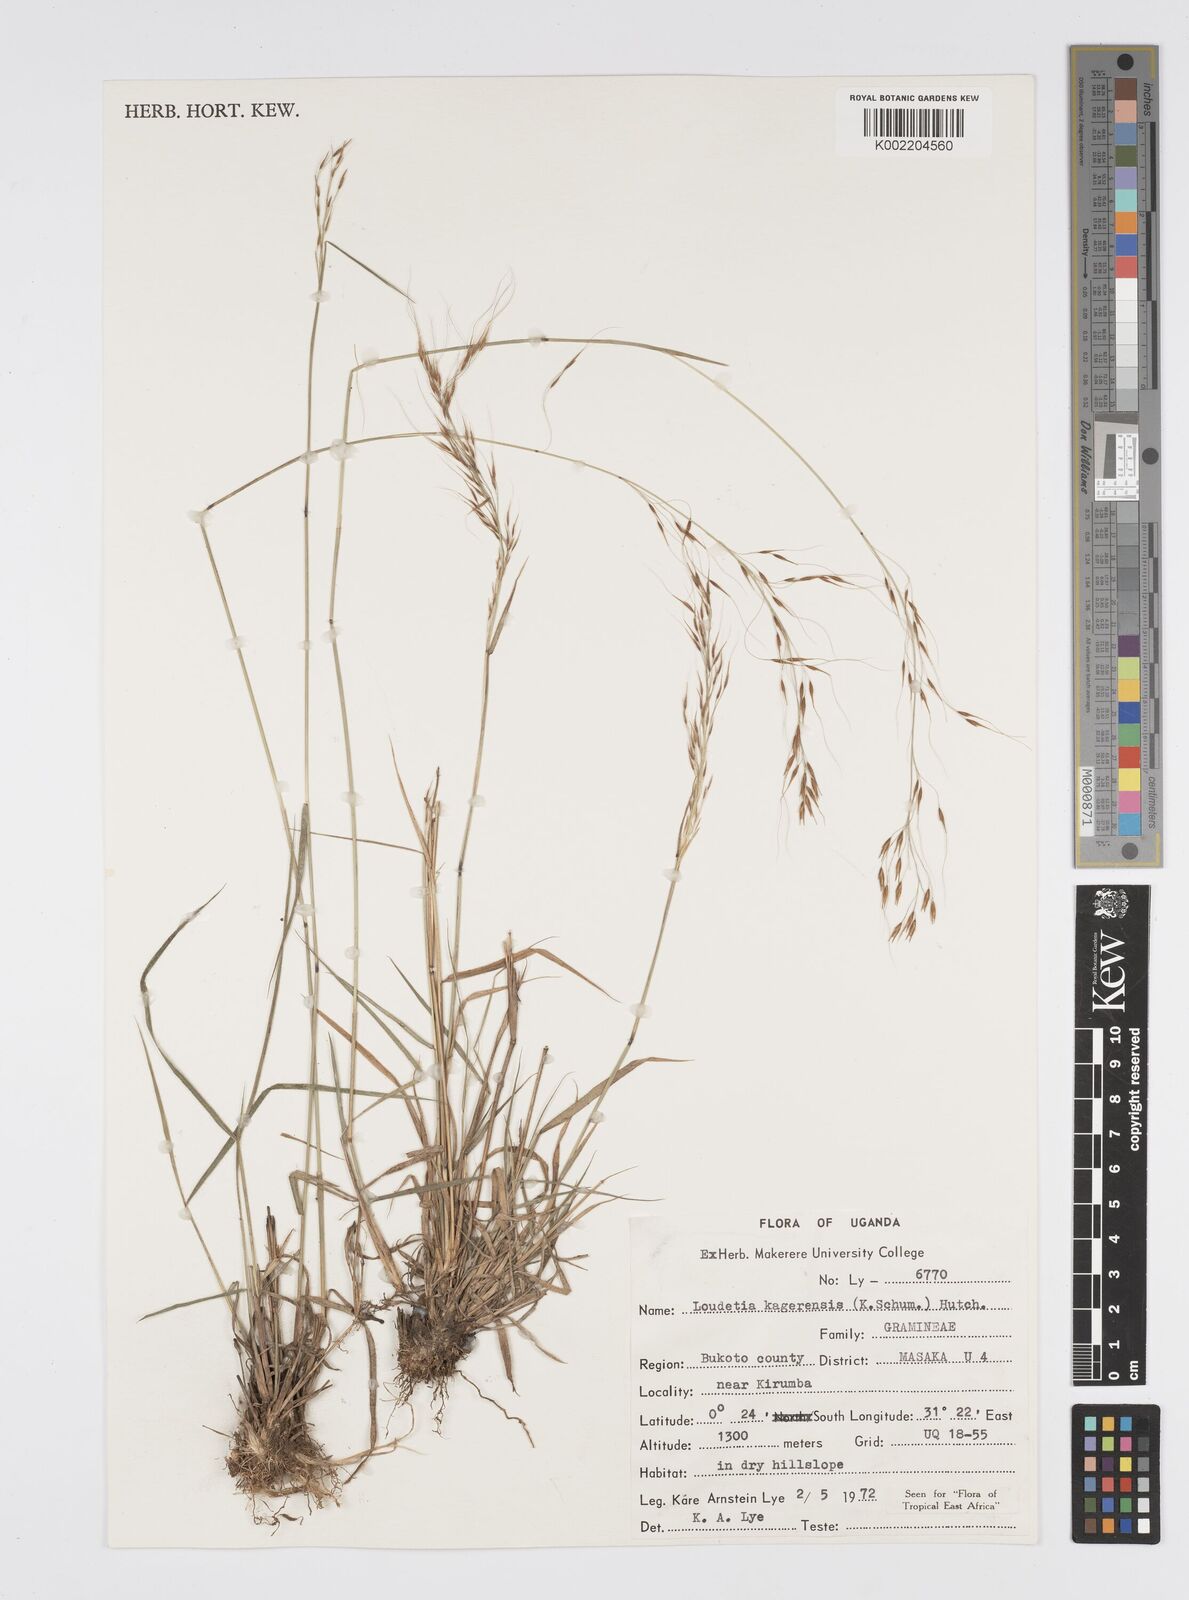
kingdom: Plantae
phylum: Tracheophyta
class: Liliopsida
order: Poales
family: Poaceae
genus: Loudetia
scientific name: Loudetia kagerensis
